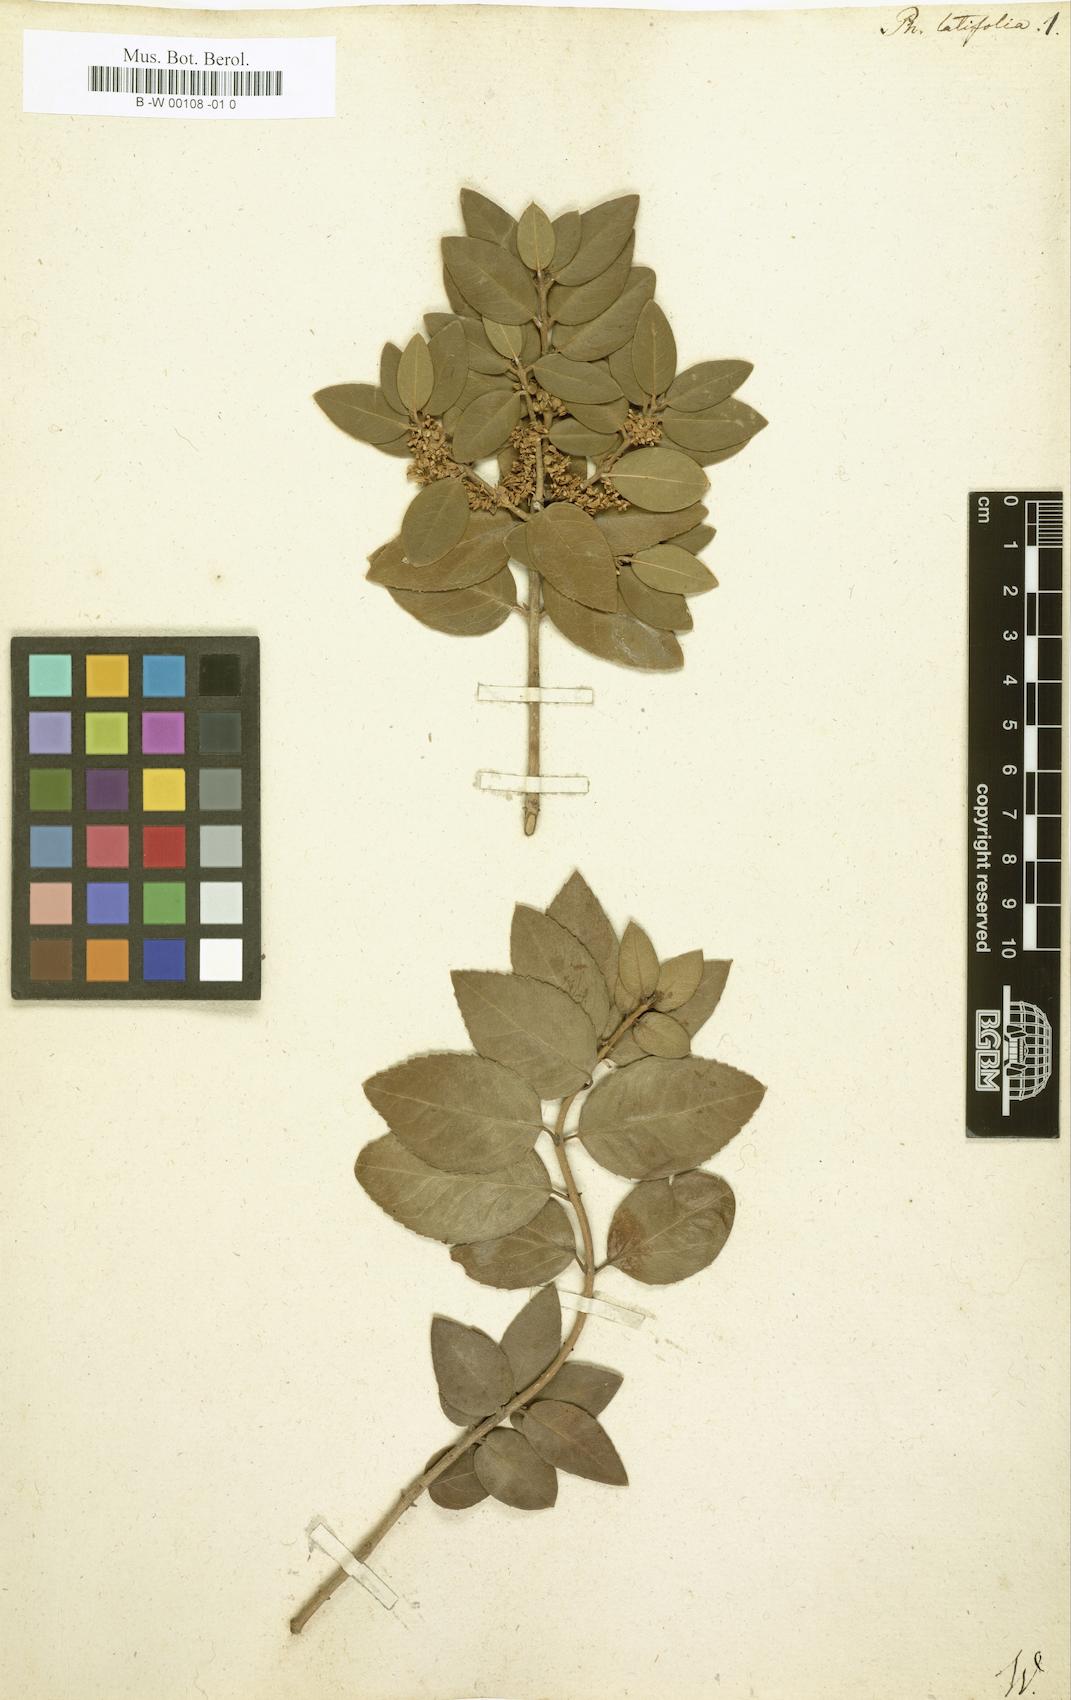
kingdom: Plantae
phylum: Tracheophyta
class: Magnoliopsida
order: Lamiales
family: Oleaceae
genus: Phillyrea
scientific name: Phillyrea latifolia
